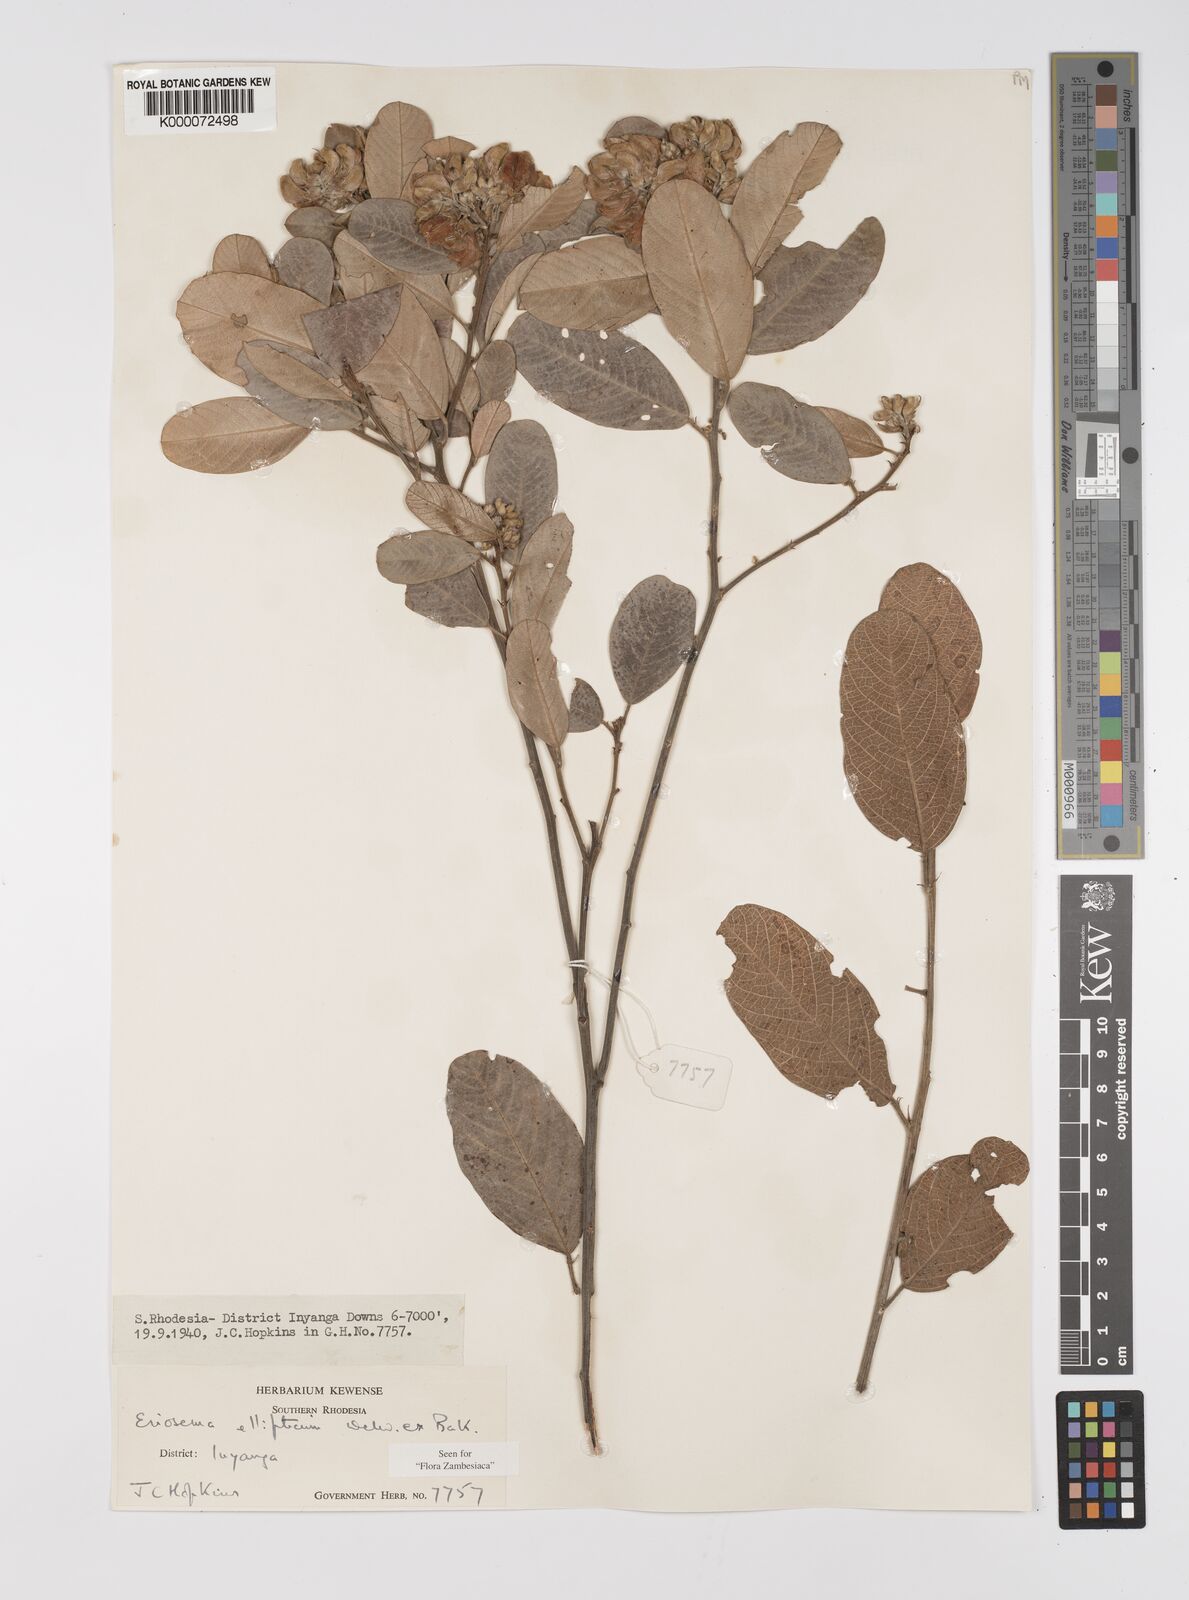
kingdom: Plantae
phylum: Tracheophyta
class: Magnoliopsida
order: Fabales
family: Fabaceae
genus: Eriosema
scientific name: Eriosema ellipticum
